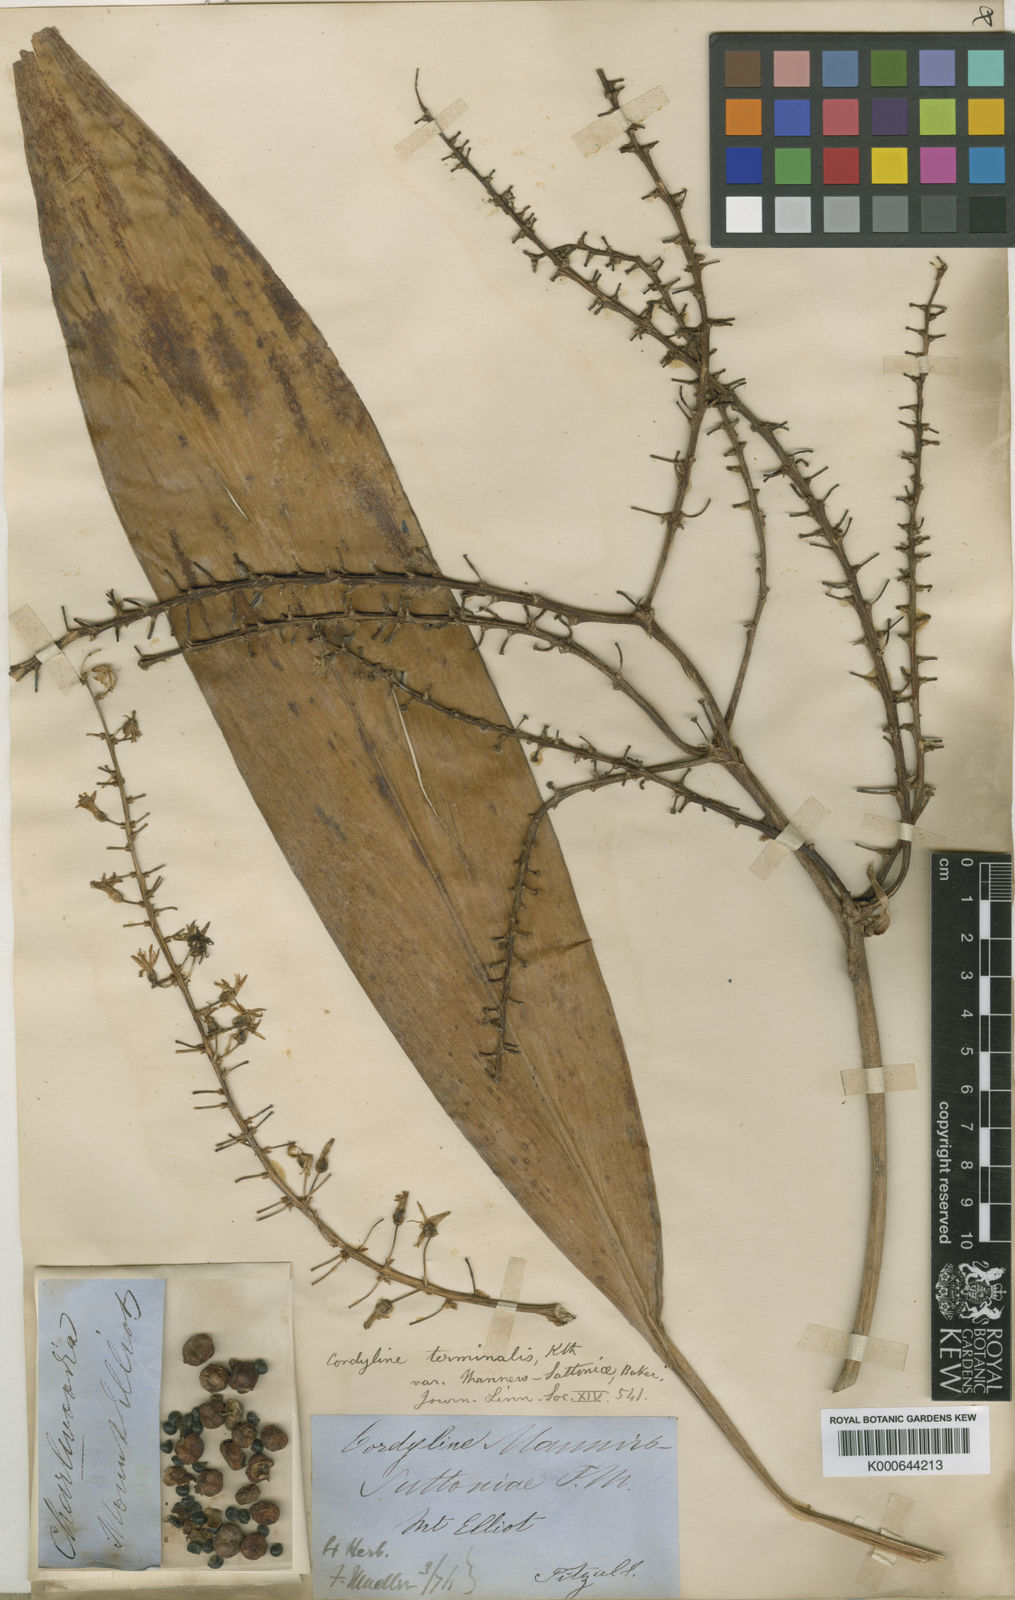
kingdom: Plantae
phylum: Tracheophyta
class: Liliopsida
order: Asparagales
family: Asparagaceae
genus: Cordyline
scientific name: Cordyline fruticosa
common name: Good-luck-plant
